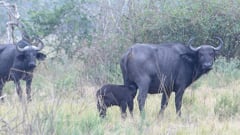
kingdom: Animalia
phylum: Chordata
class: Mammalia
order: Artiodactyla
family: Bovidae
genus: Syncerus
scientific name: Syncerus caffer
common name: African buffalo
